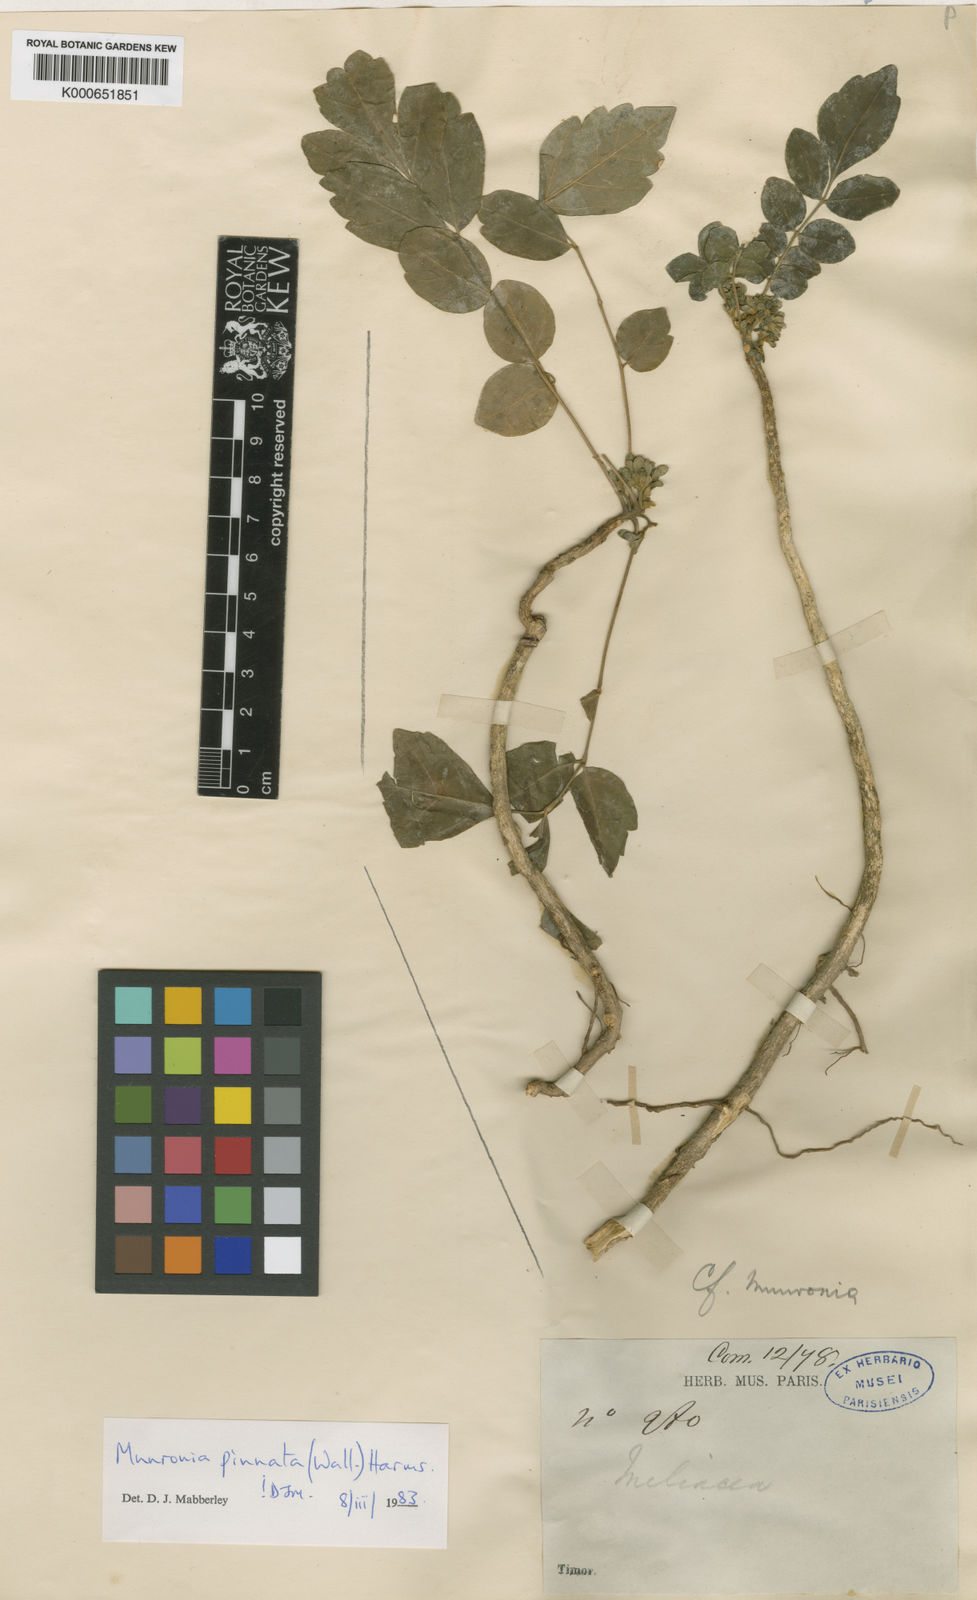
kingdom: Plantae
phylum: Tracheophyta
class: Magnoliopsida
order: Sapindales
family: Meliaceae
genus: Munronia
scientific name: Munronia pinnata
